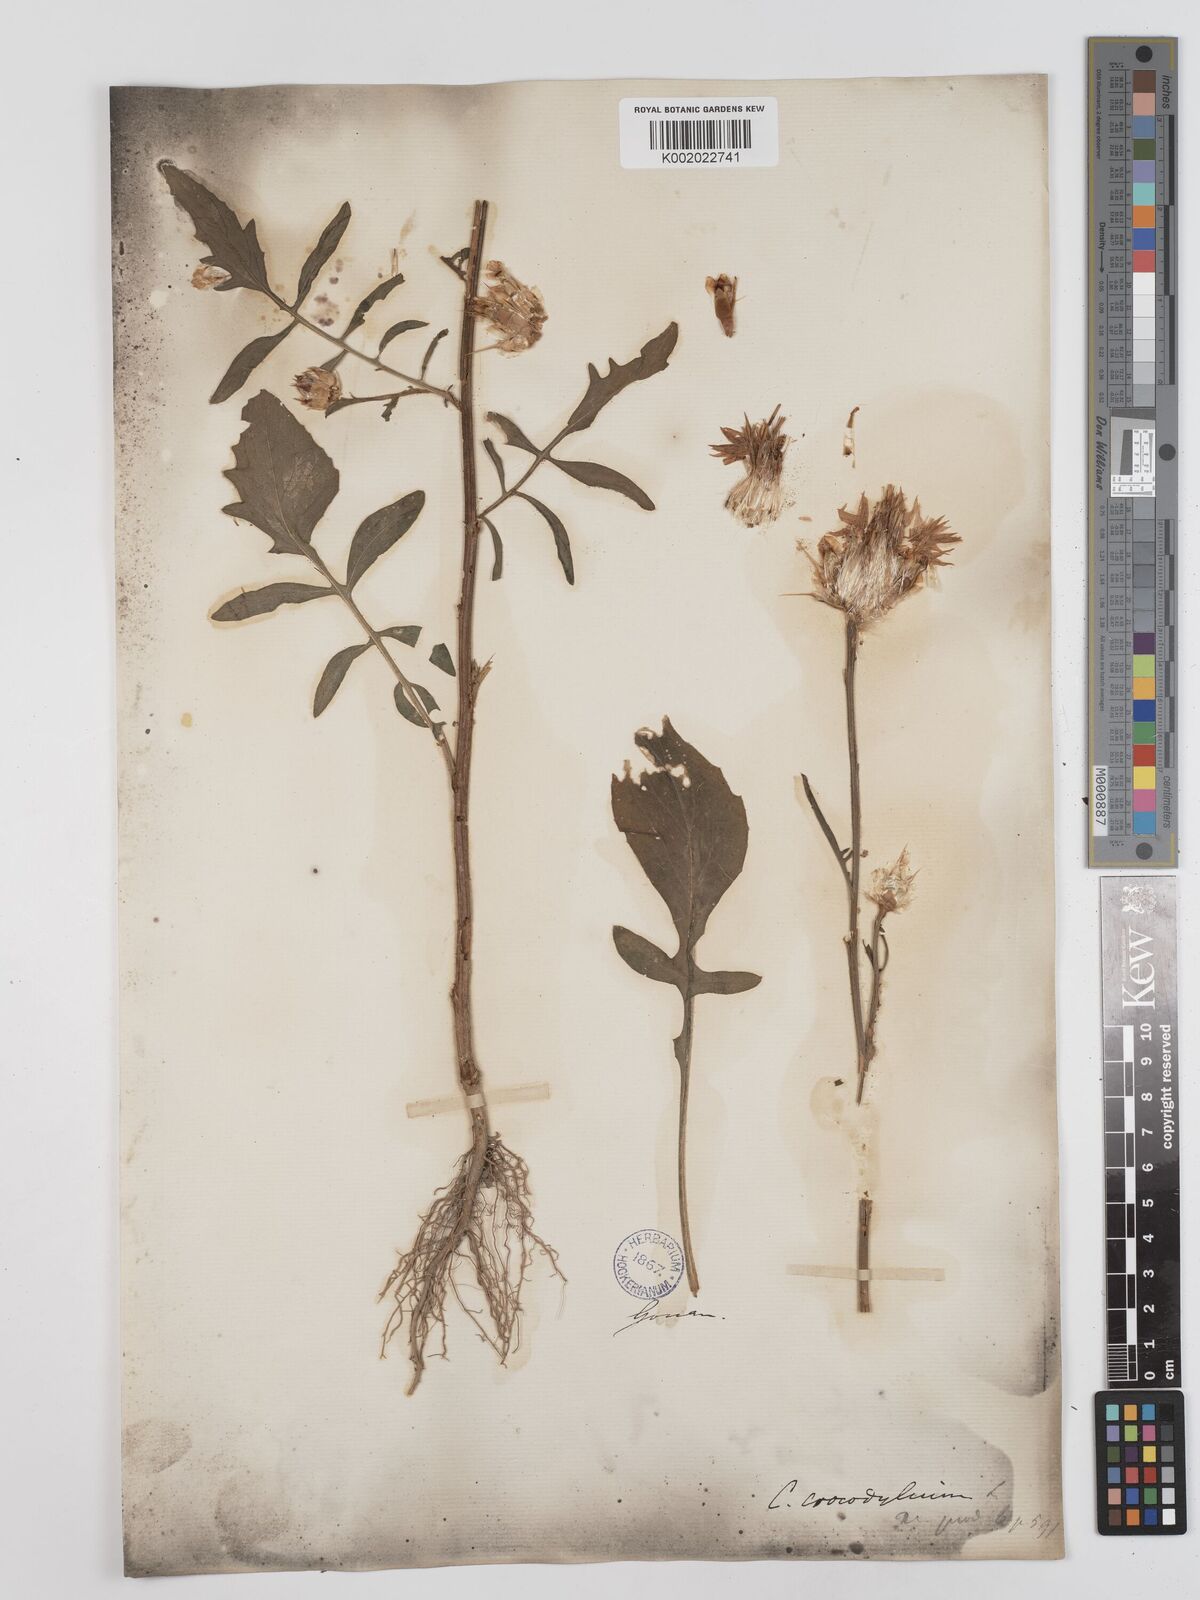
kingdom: Plantae
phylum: Tracheophyta
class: Magnoliopsida
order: Asterales
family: Asteraceae
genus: Crocodilium
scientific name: Crocodilium crocodylium
